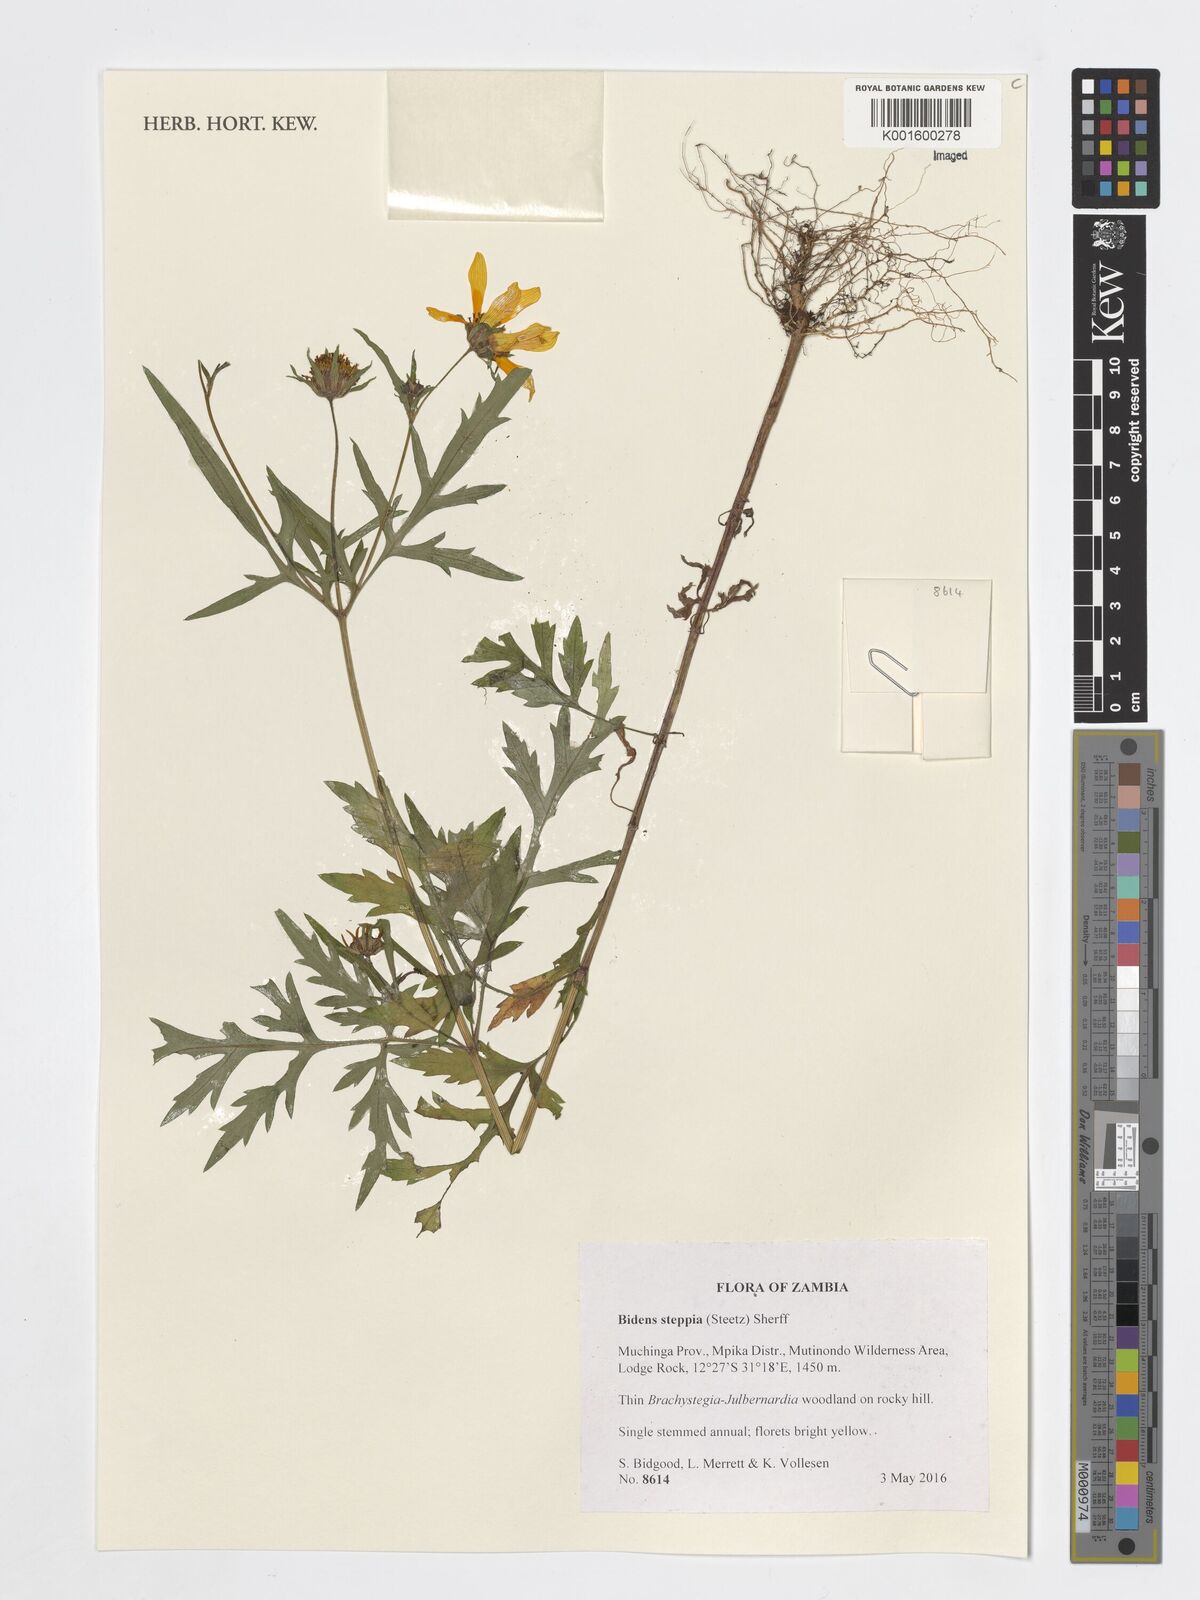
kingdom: Plantae
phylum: Tracheophyta
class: Magnoliopsida
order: Asterales
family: Asteraceae
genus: Bidens
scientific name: Bidens steppia
